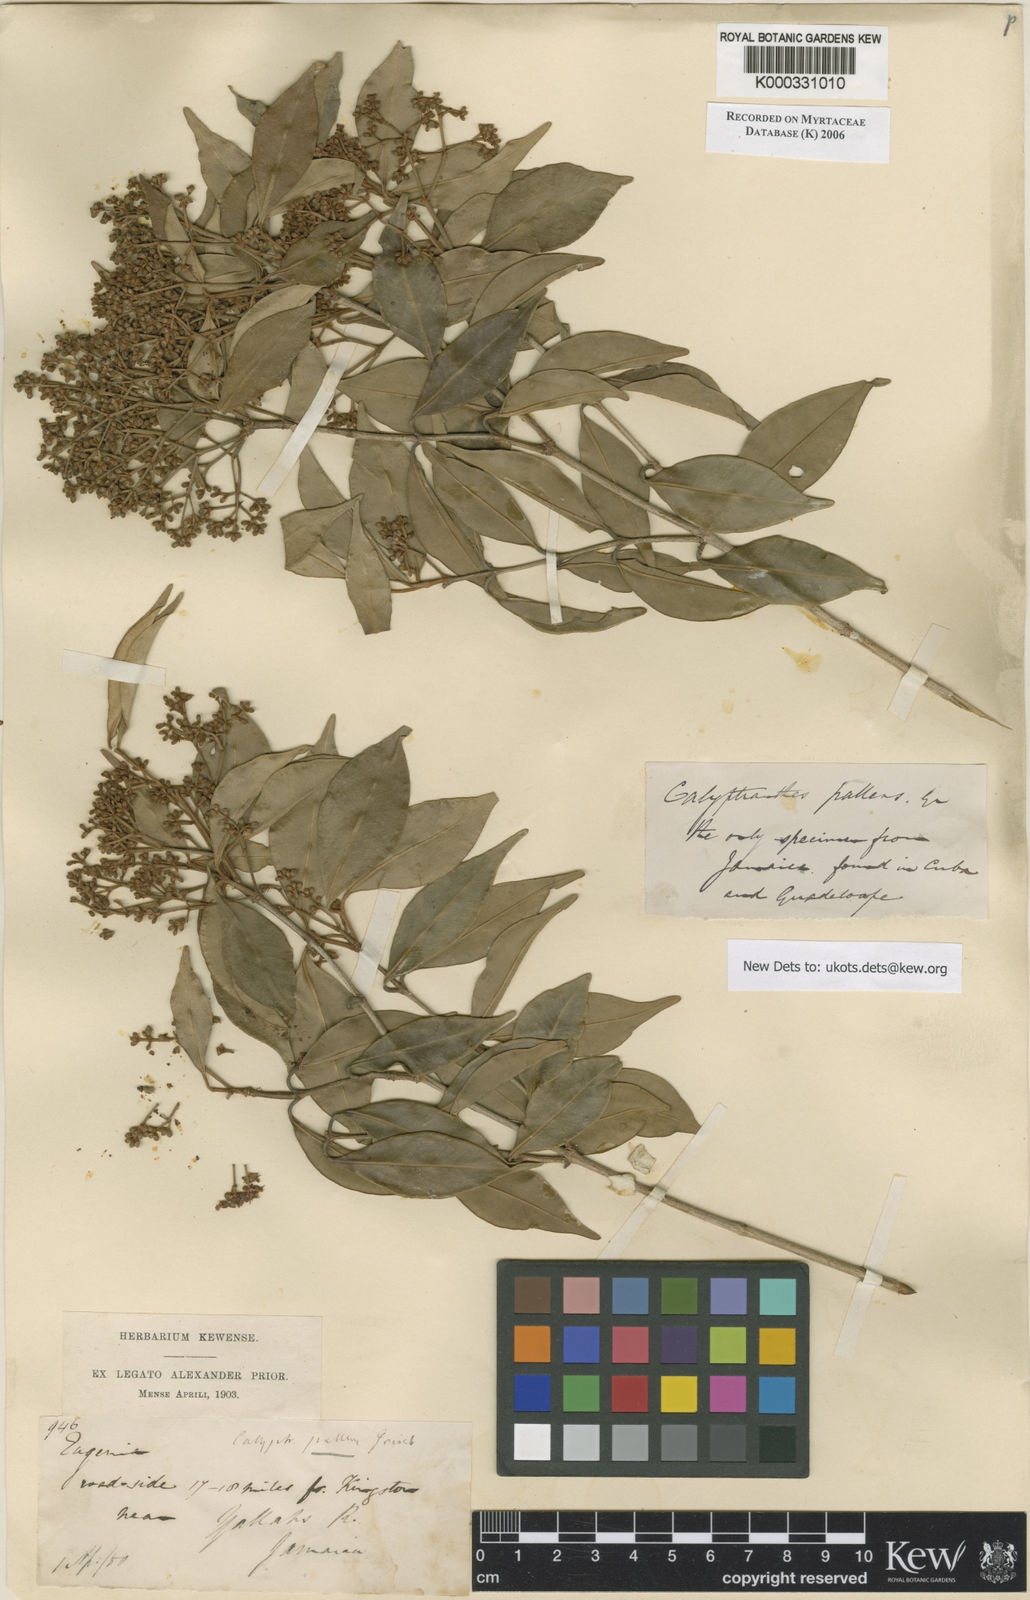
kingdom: Plantae
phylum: Tracheophyta
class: Magnoliopsida
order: Myrtales
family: Myrtaceae
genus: Myrcia
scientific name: Myrcia neopallens
